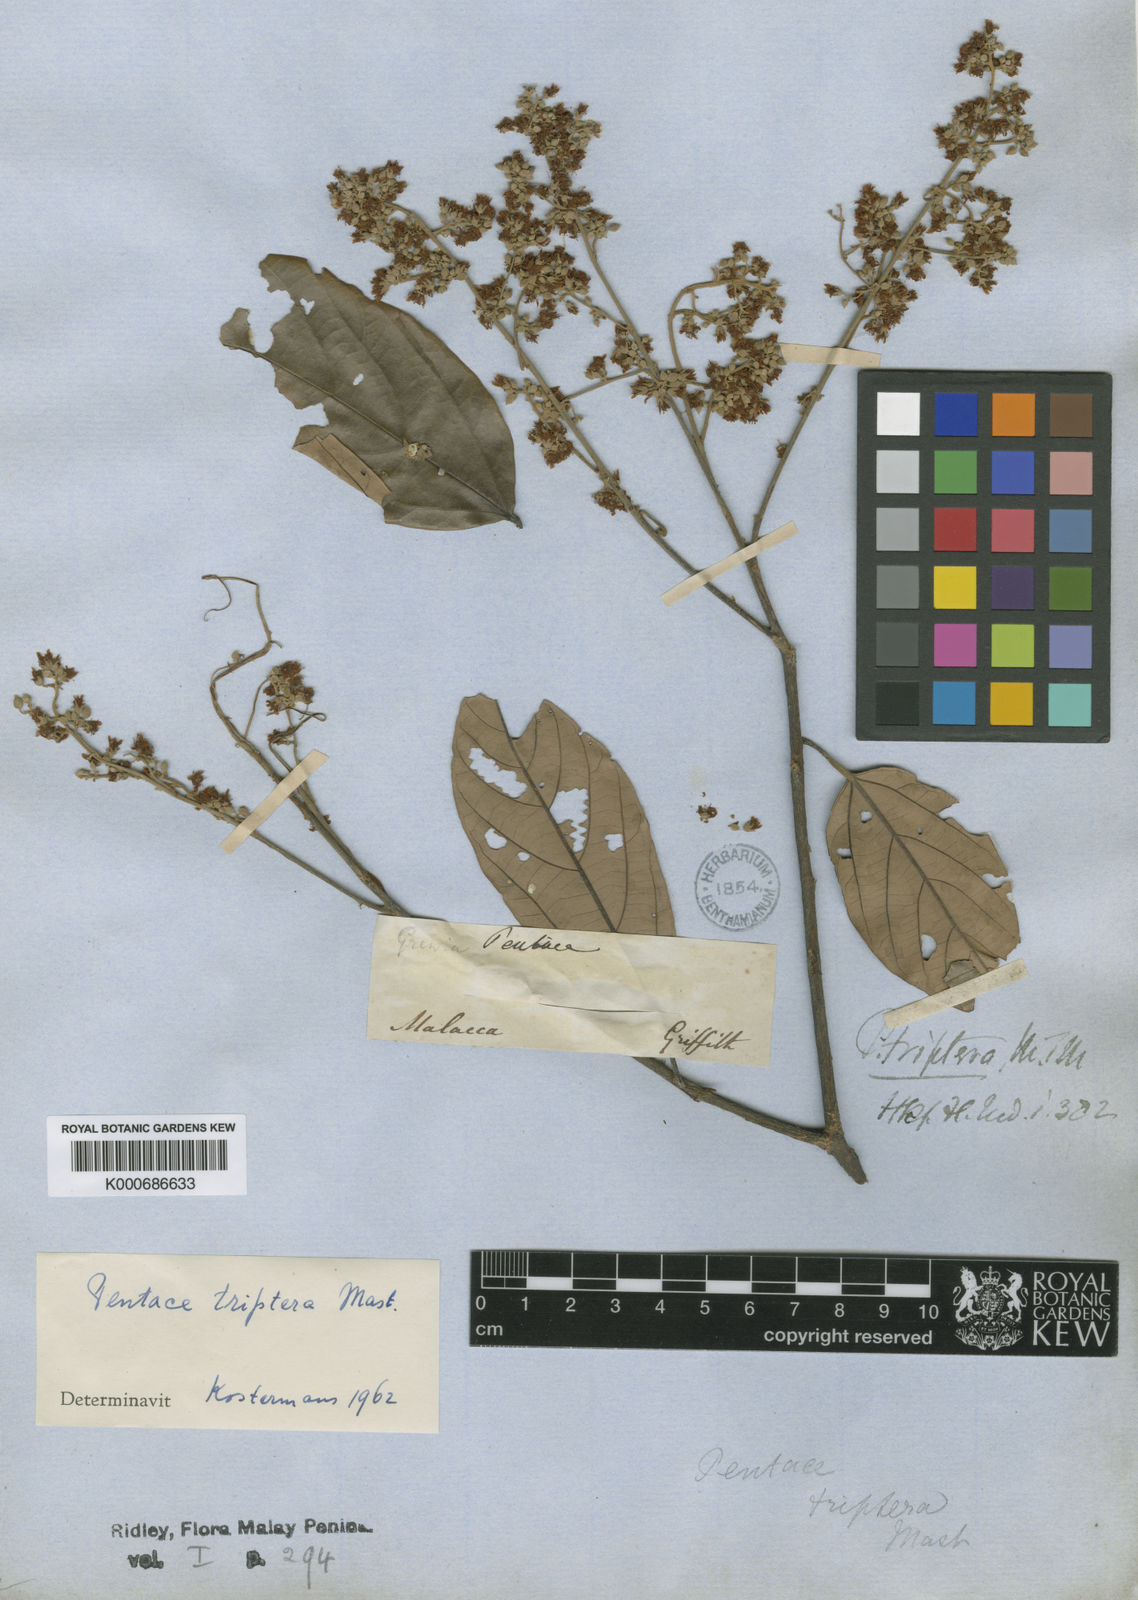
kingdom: Plantae
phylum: Tracheophyta
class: Magnoliopsida
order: Malvales
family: Malvaceae
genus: Pentace
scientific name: Pentace triptera
